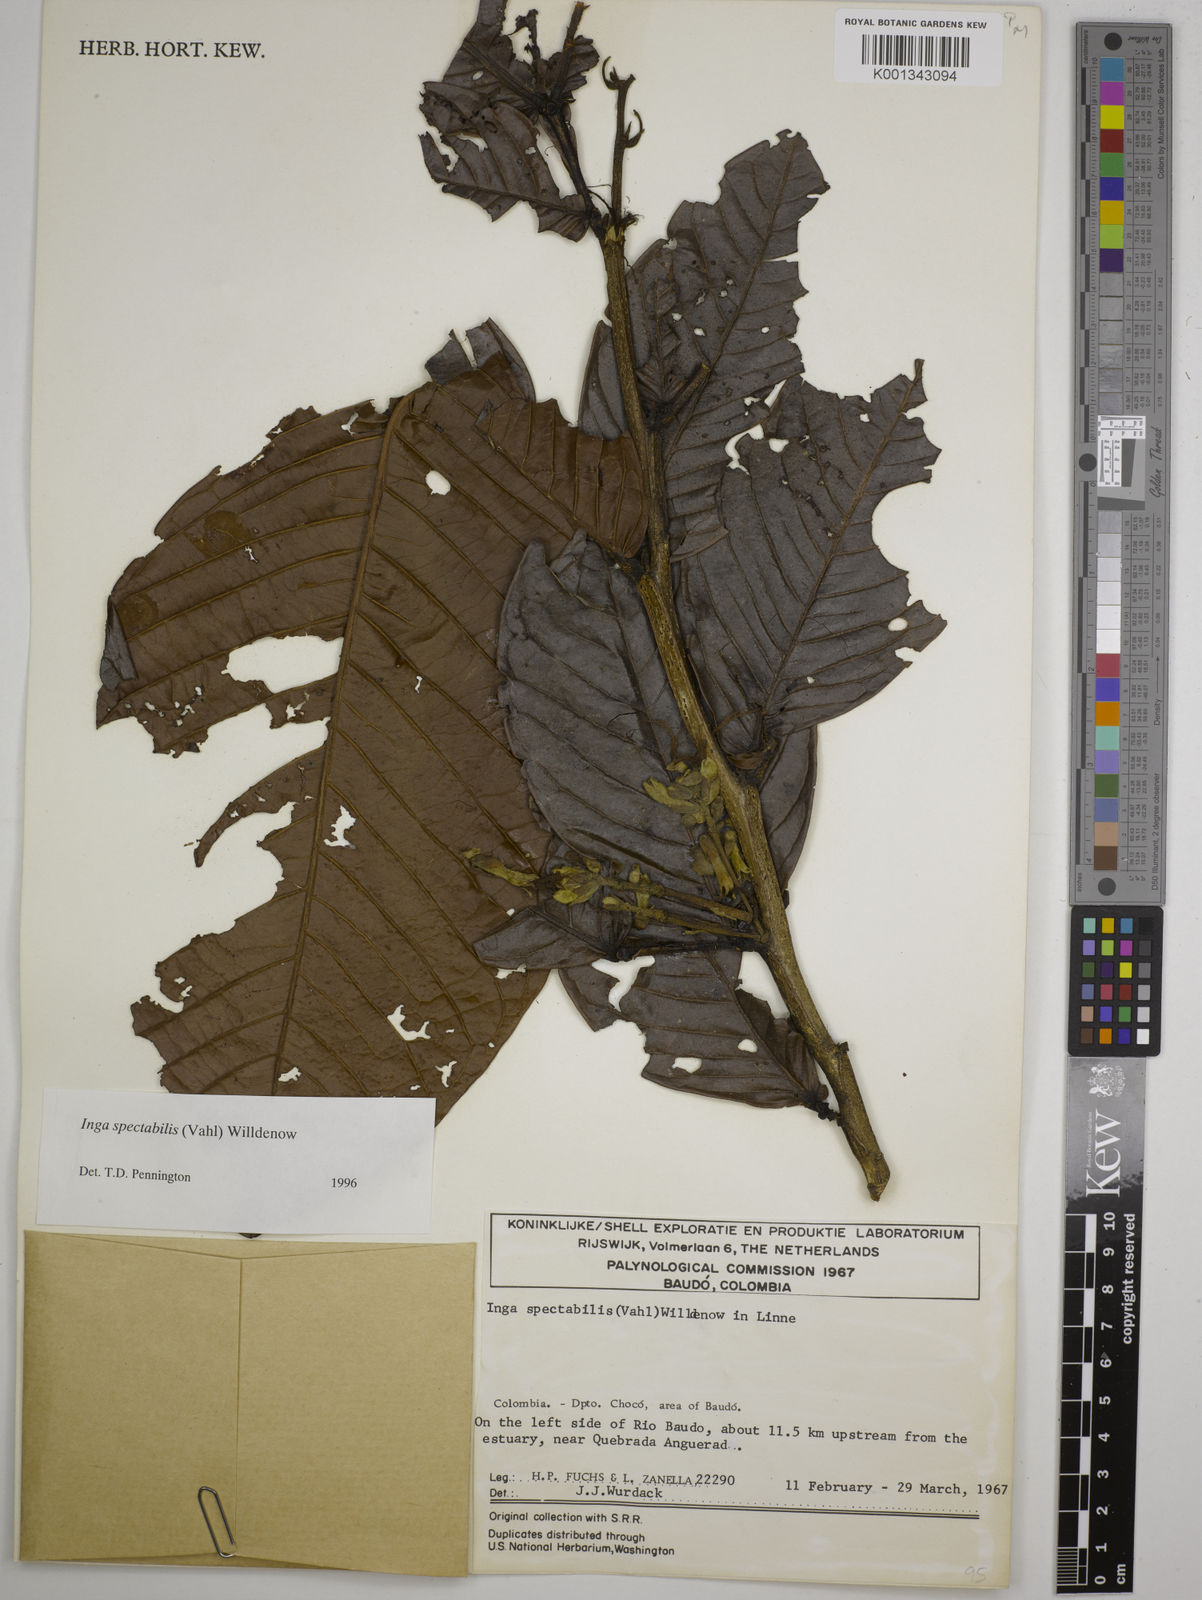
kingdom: Plantae
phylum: Tracheophyta
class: Magnoliopsida
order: Fabales
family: Fabaceae
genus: Inga
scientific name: Inga spectabilis
